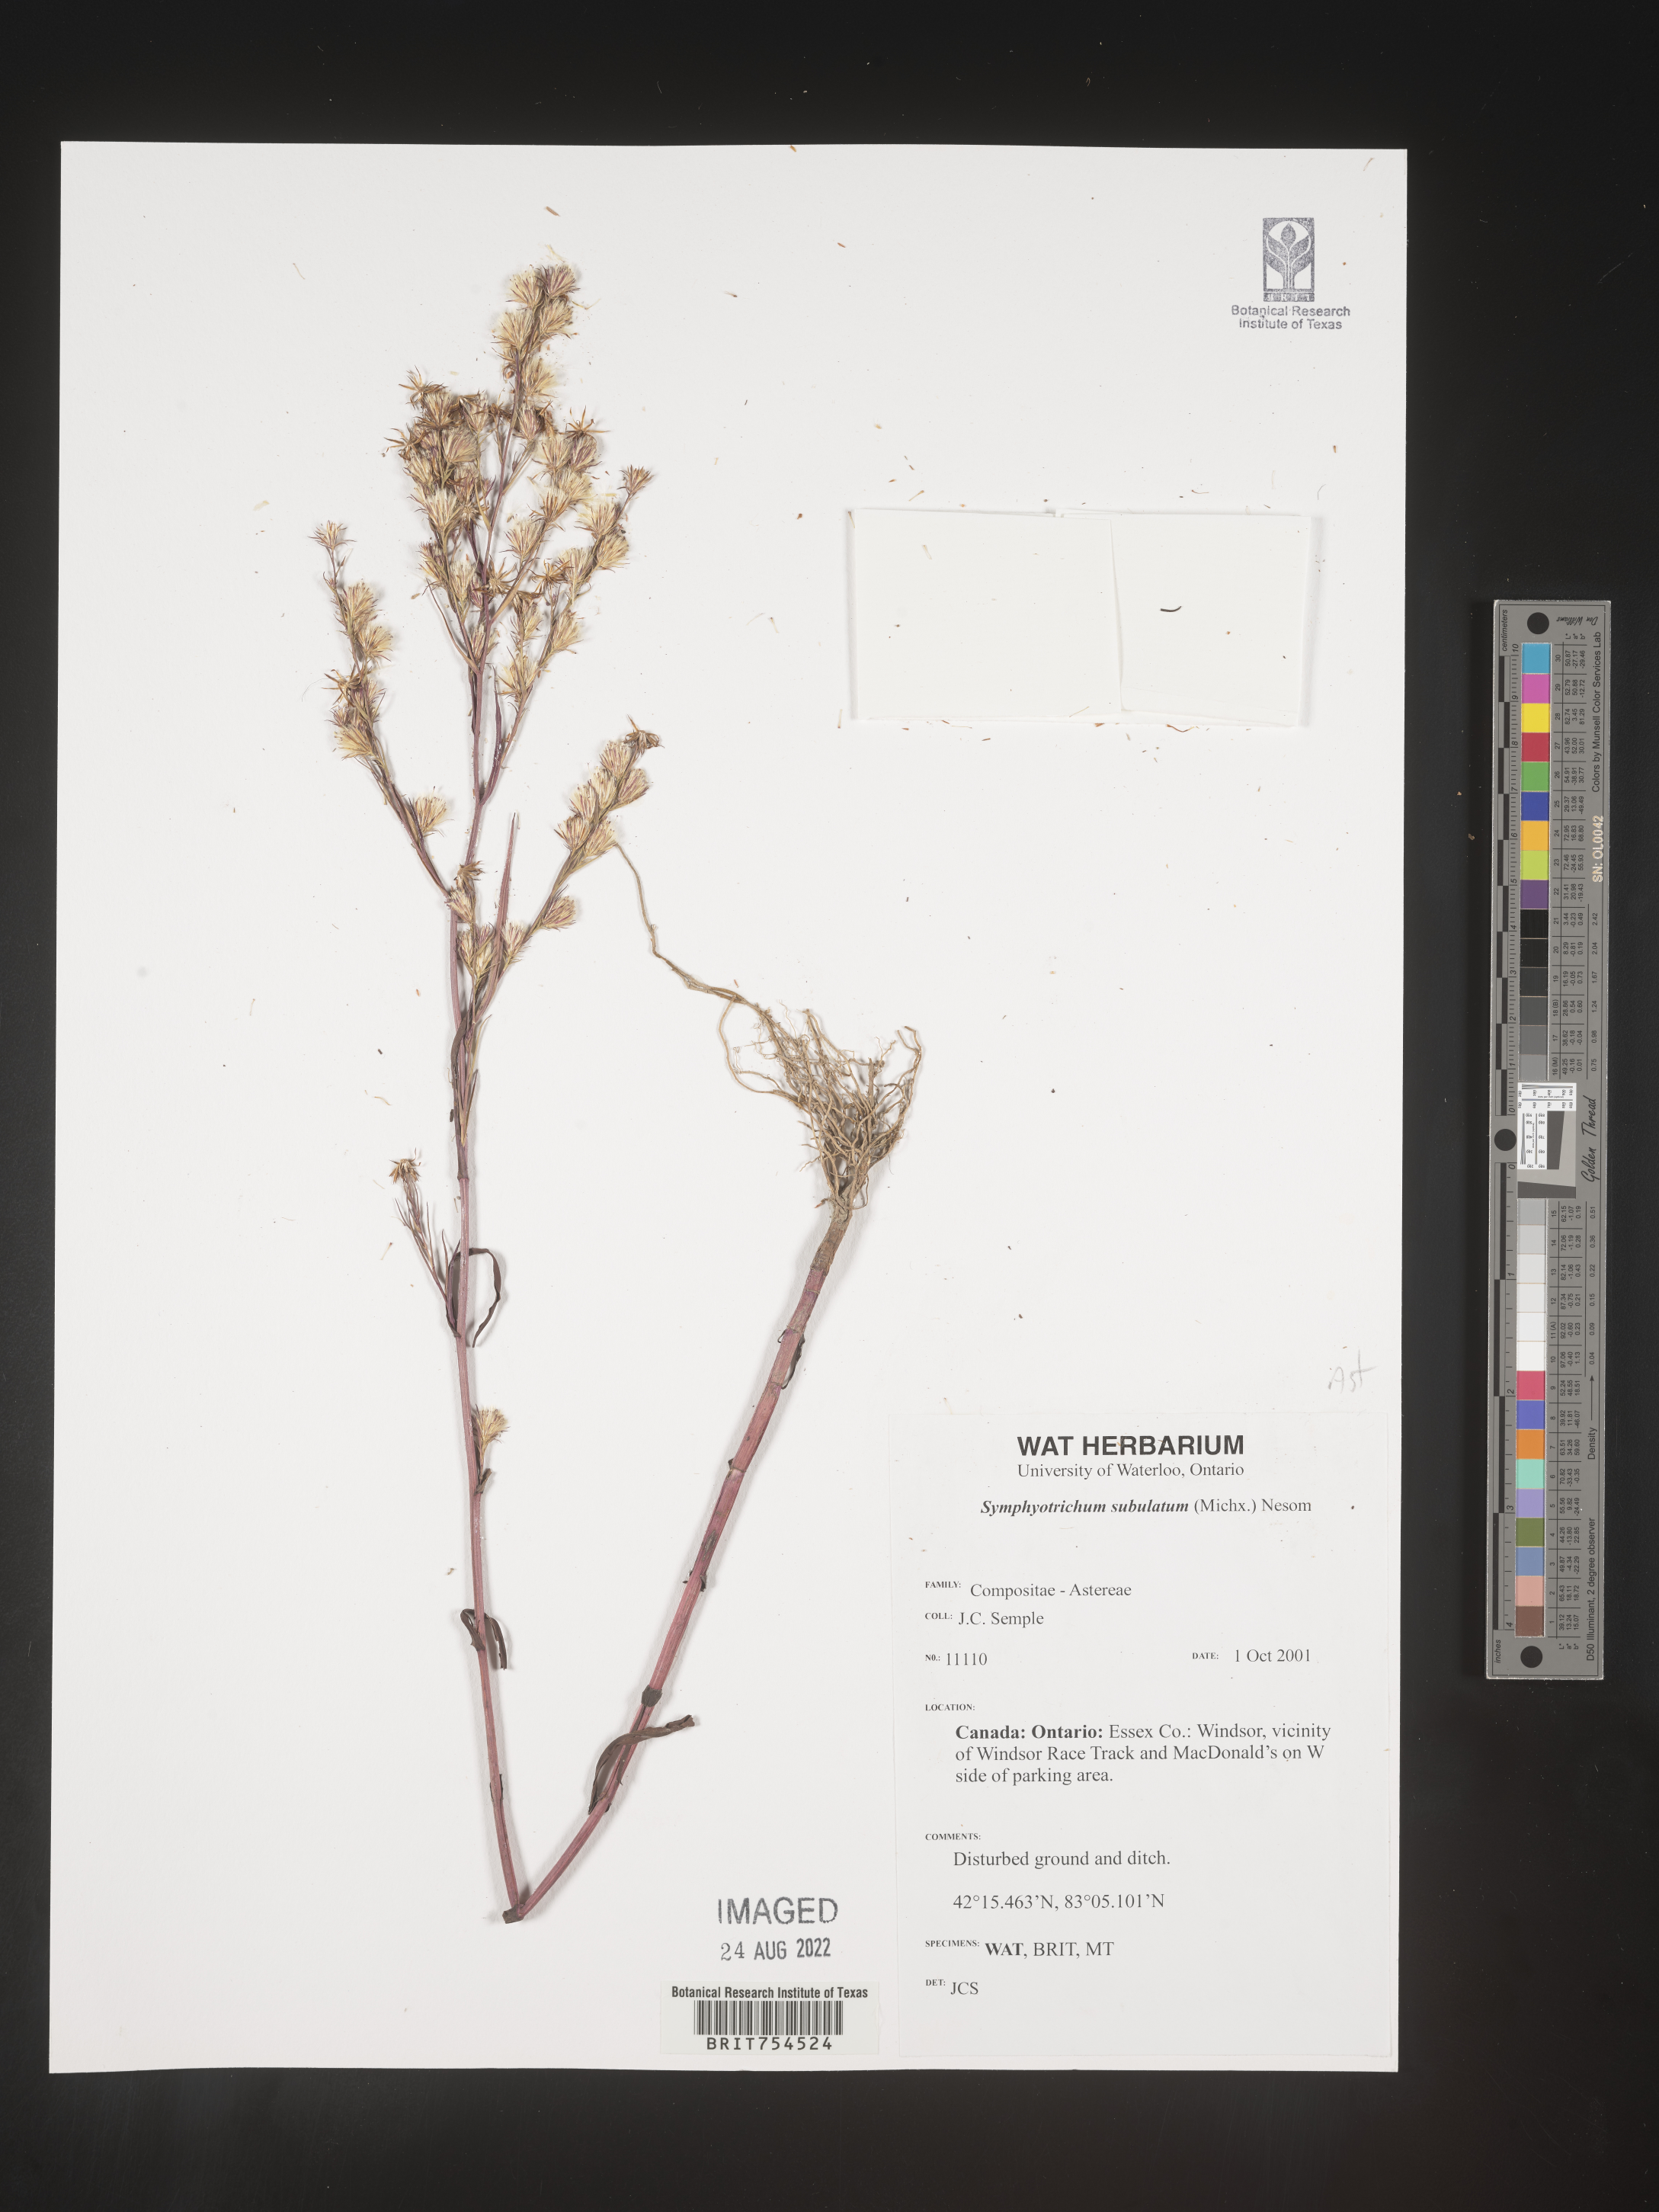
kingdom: Plantae
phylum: Tracheophyta
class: Magnoliopsida
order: Asterales
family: Asteraceae
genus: Symphyotrichum
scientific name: Symphyotrichum subulatum
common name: Annual saltmarsh aster
